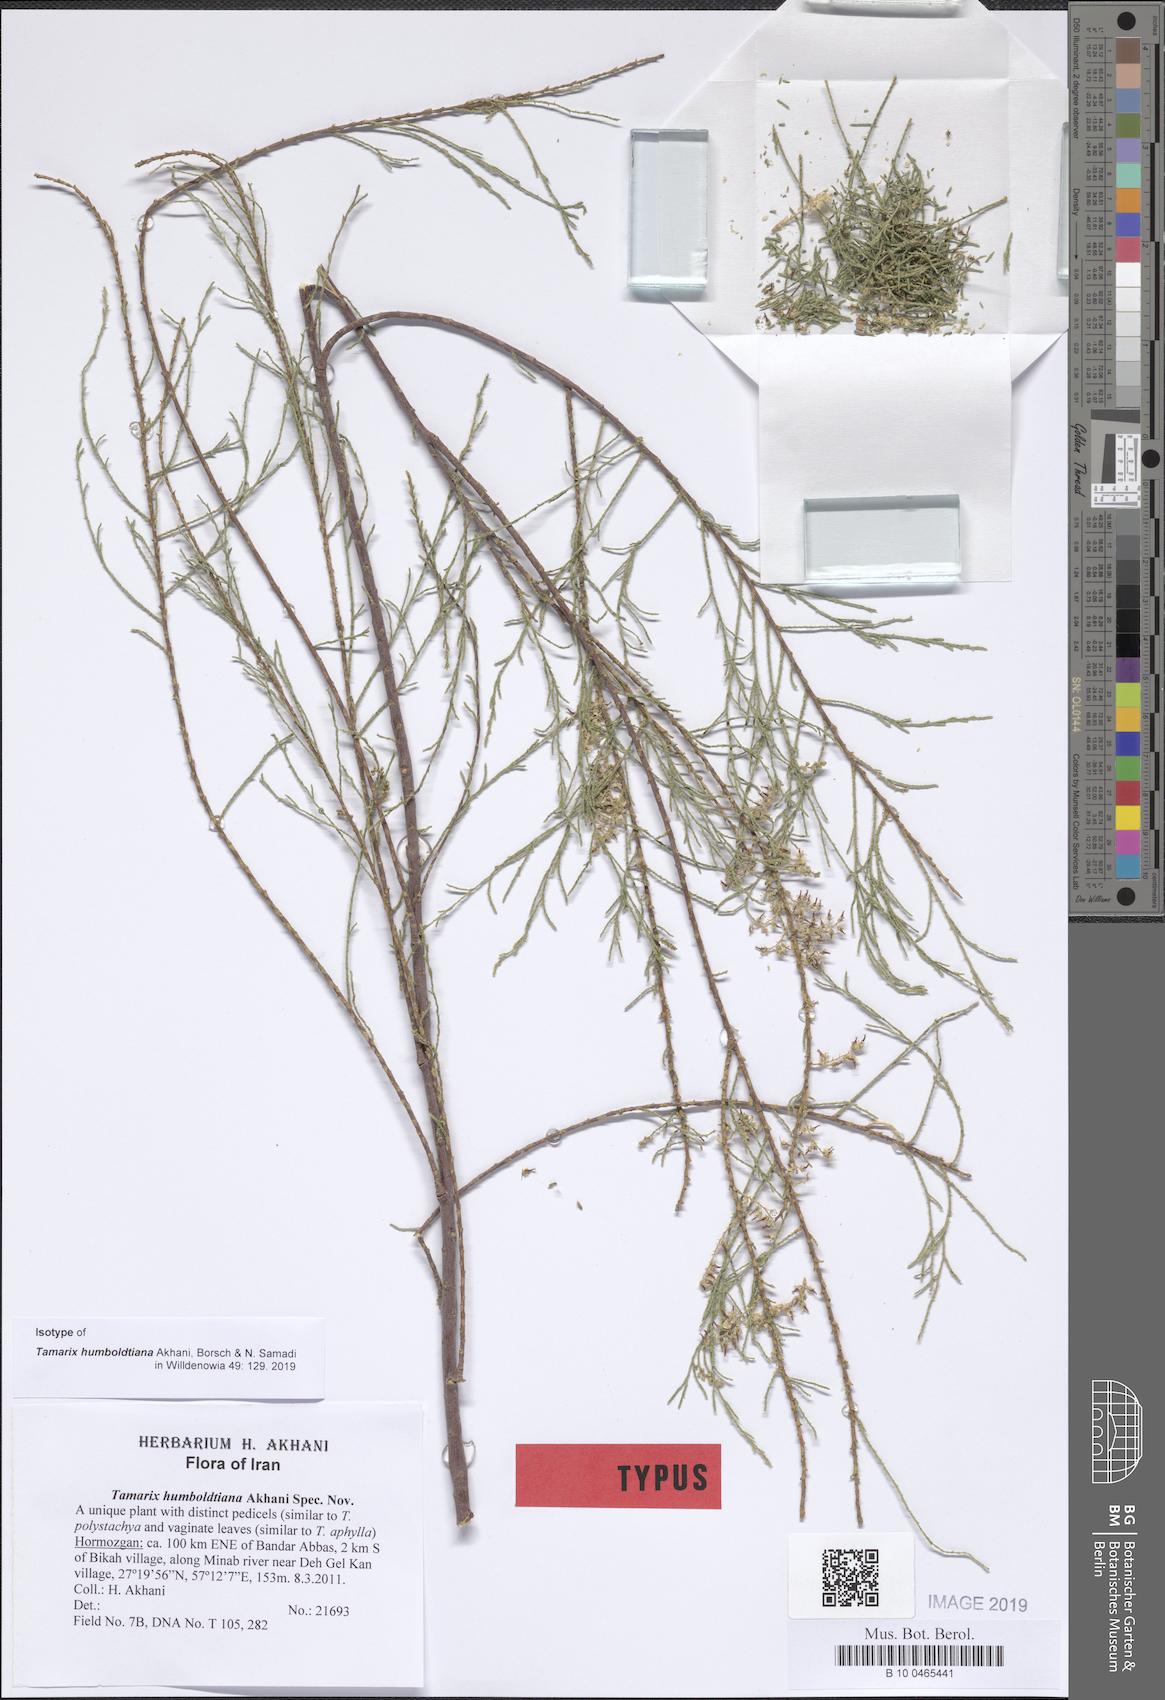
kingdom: Plantae
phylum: Tracheophyta
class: Magnoliopsida
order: Caryophyllales
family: Tamaricaceae
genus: Tamarix
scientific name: Tamarix humboldtiana
